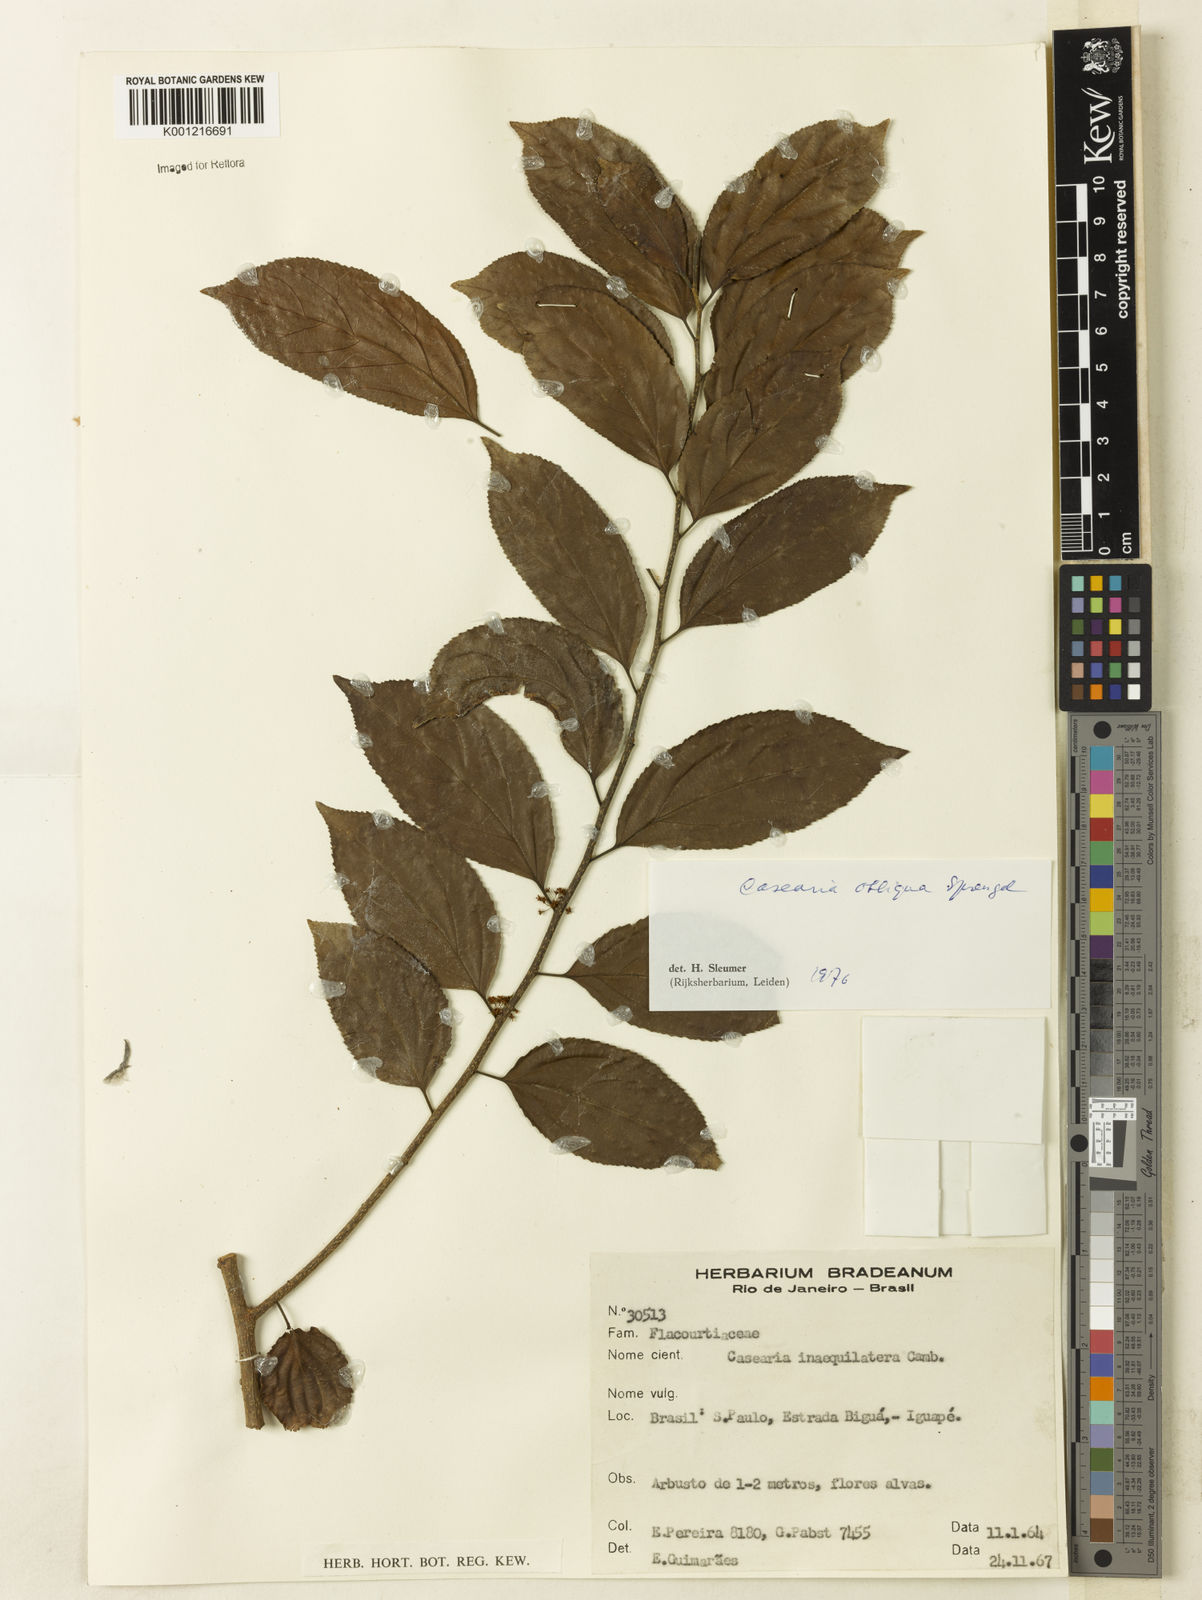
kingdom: Plantae
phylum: Tracheophyta
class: Magnoliopsida
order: Malpighiales
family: Salicaceae
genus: Casearia
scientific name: Casearia obliqua
